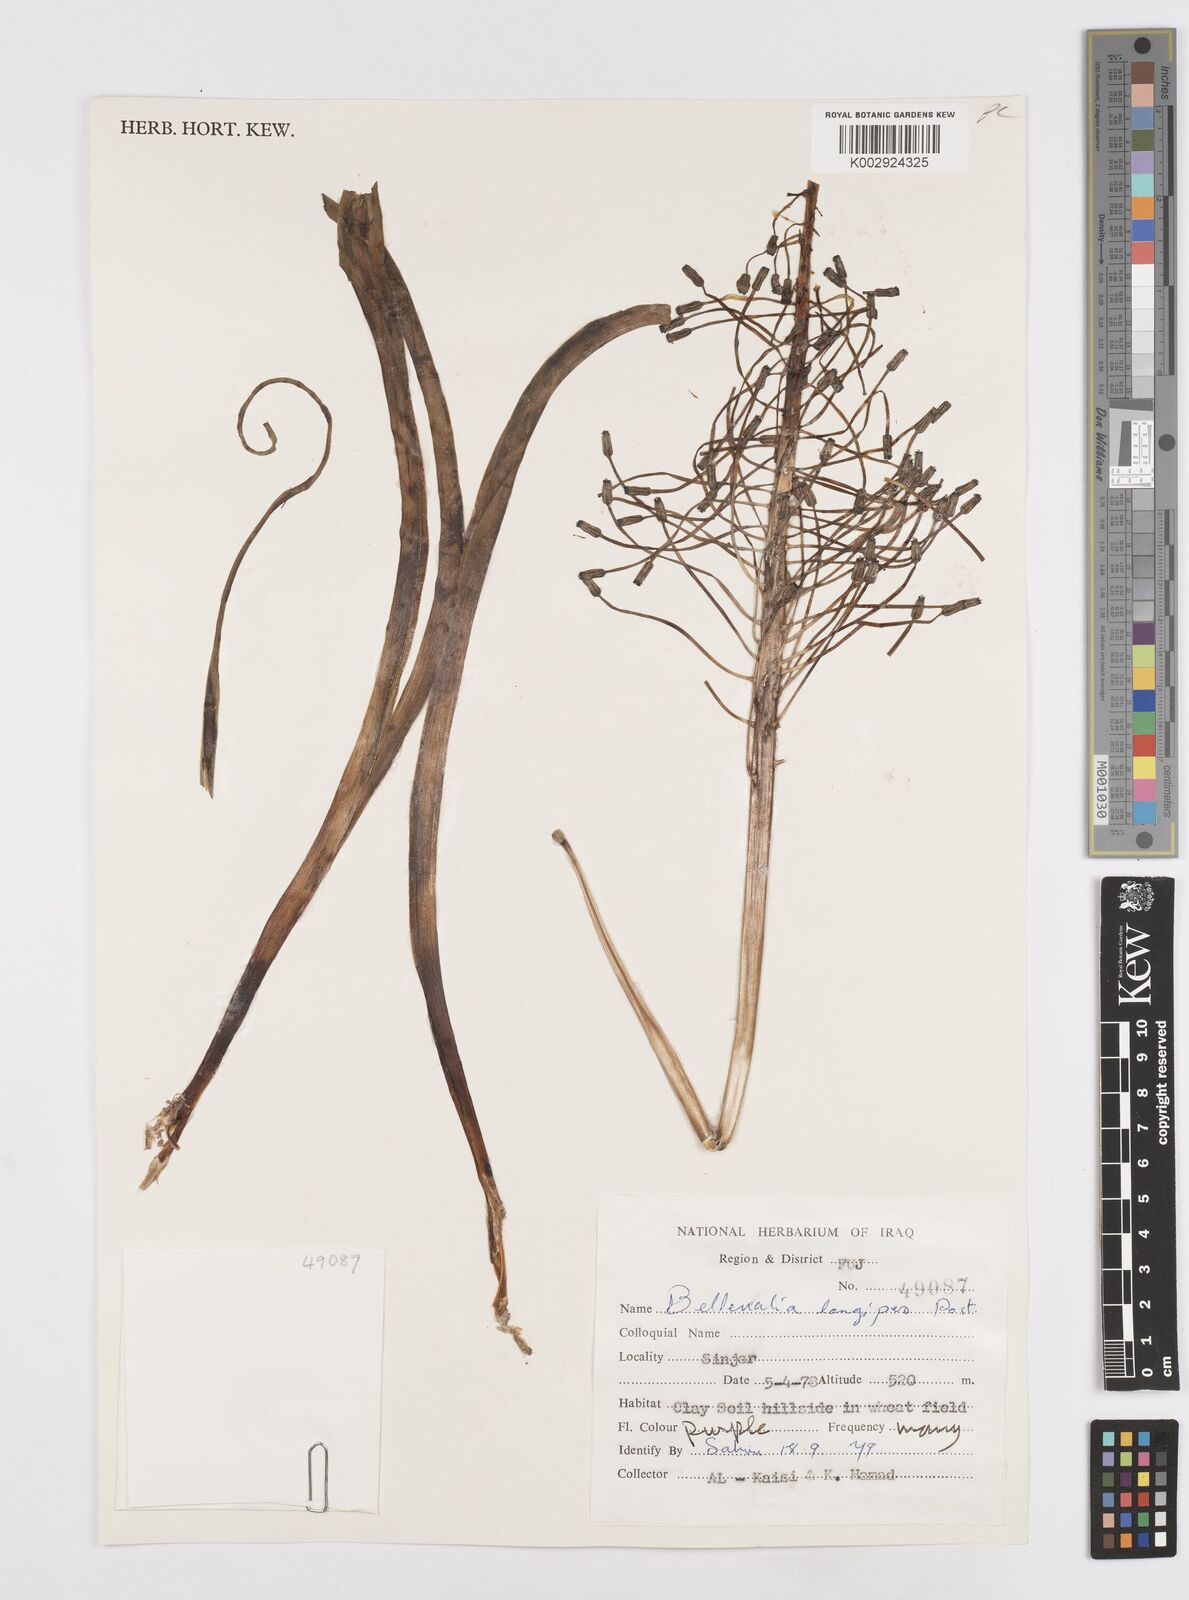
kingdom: Plantae
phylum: Tracheophyta
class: Liliopsida
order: Asparagales
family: Asparagaceae
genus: Bellevalia
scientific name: Bellevalia longipes
